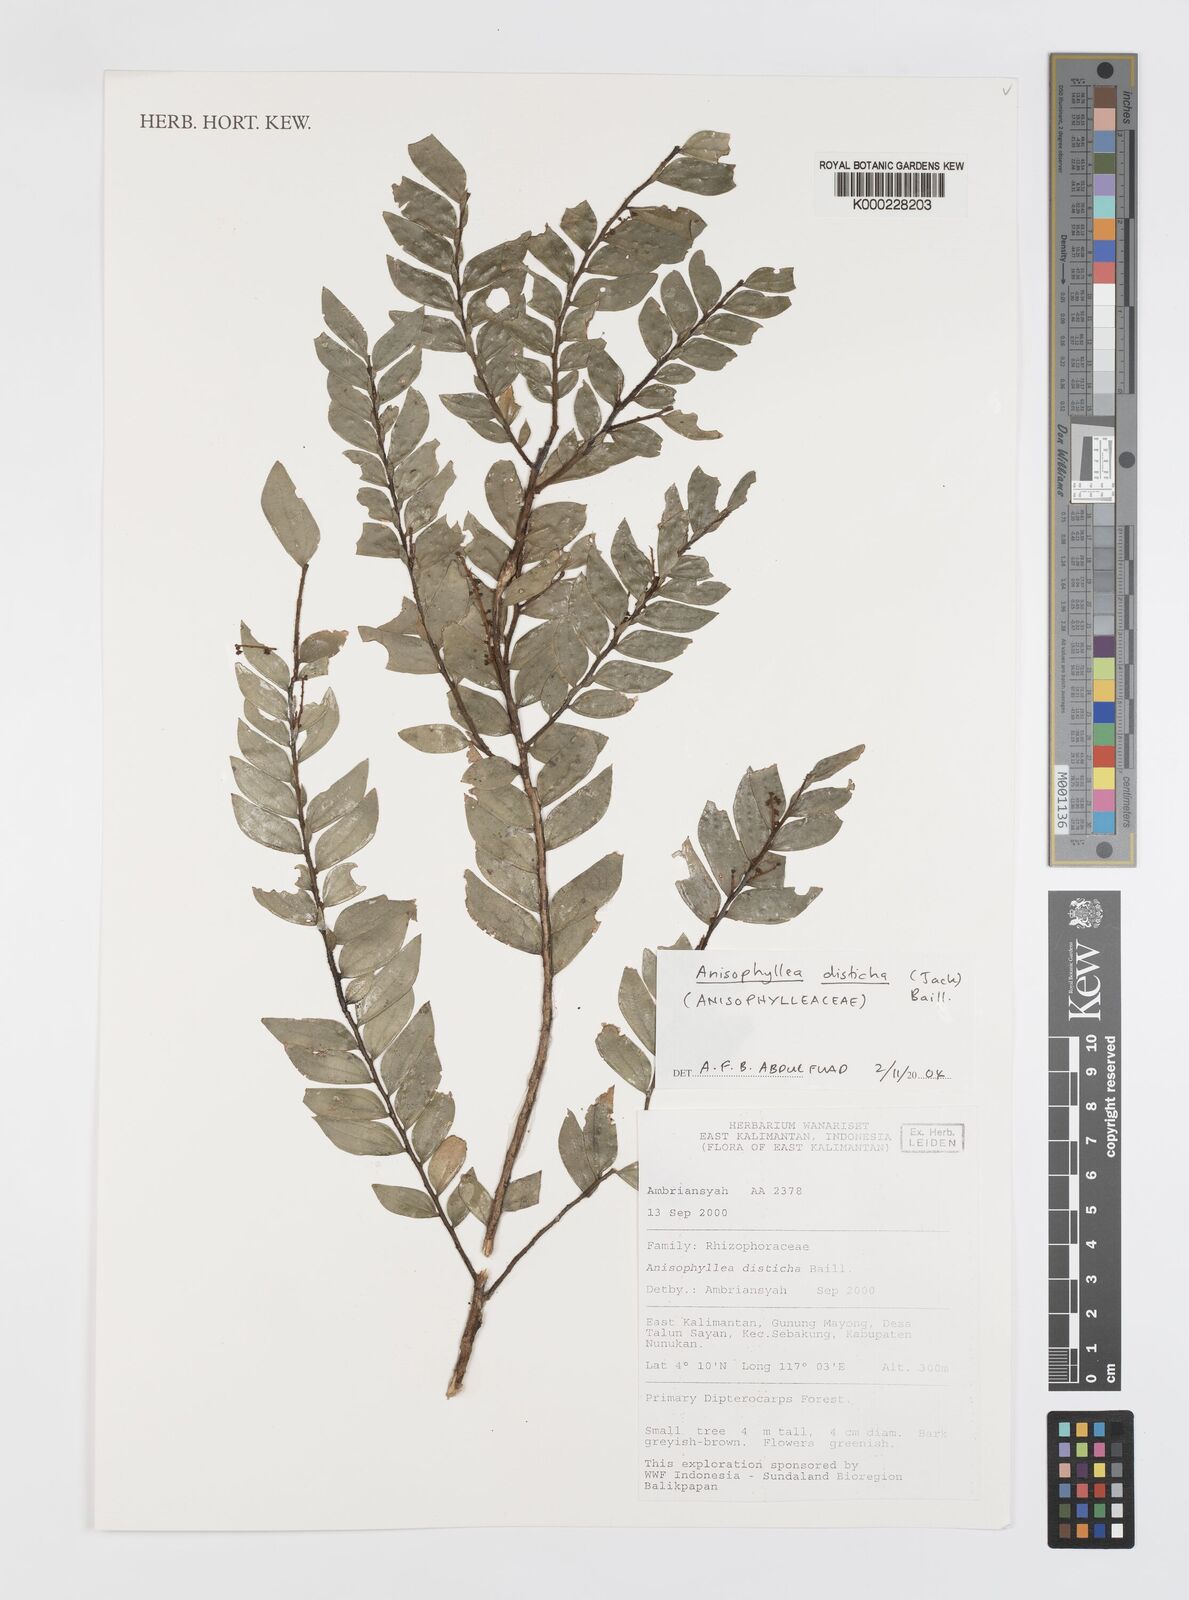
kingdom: Plantae
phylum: Tracheophyta
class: Magnoliopsida
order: Cucurbitales
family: Anisophylleaceae
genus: Anisophyllea
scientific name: Anisophyllea disticha
